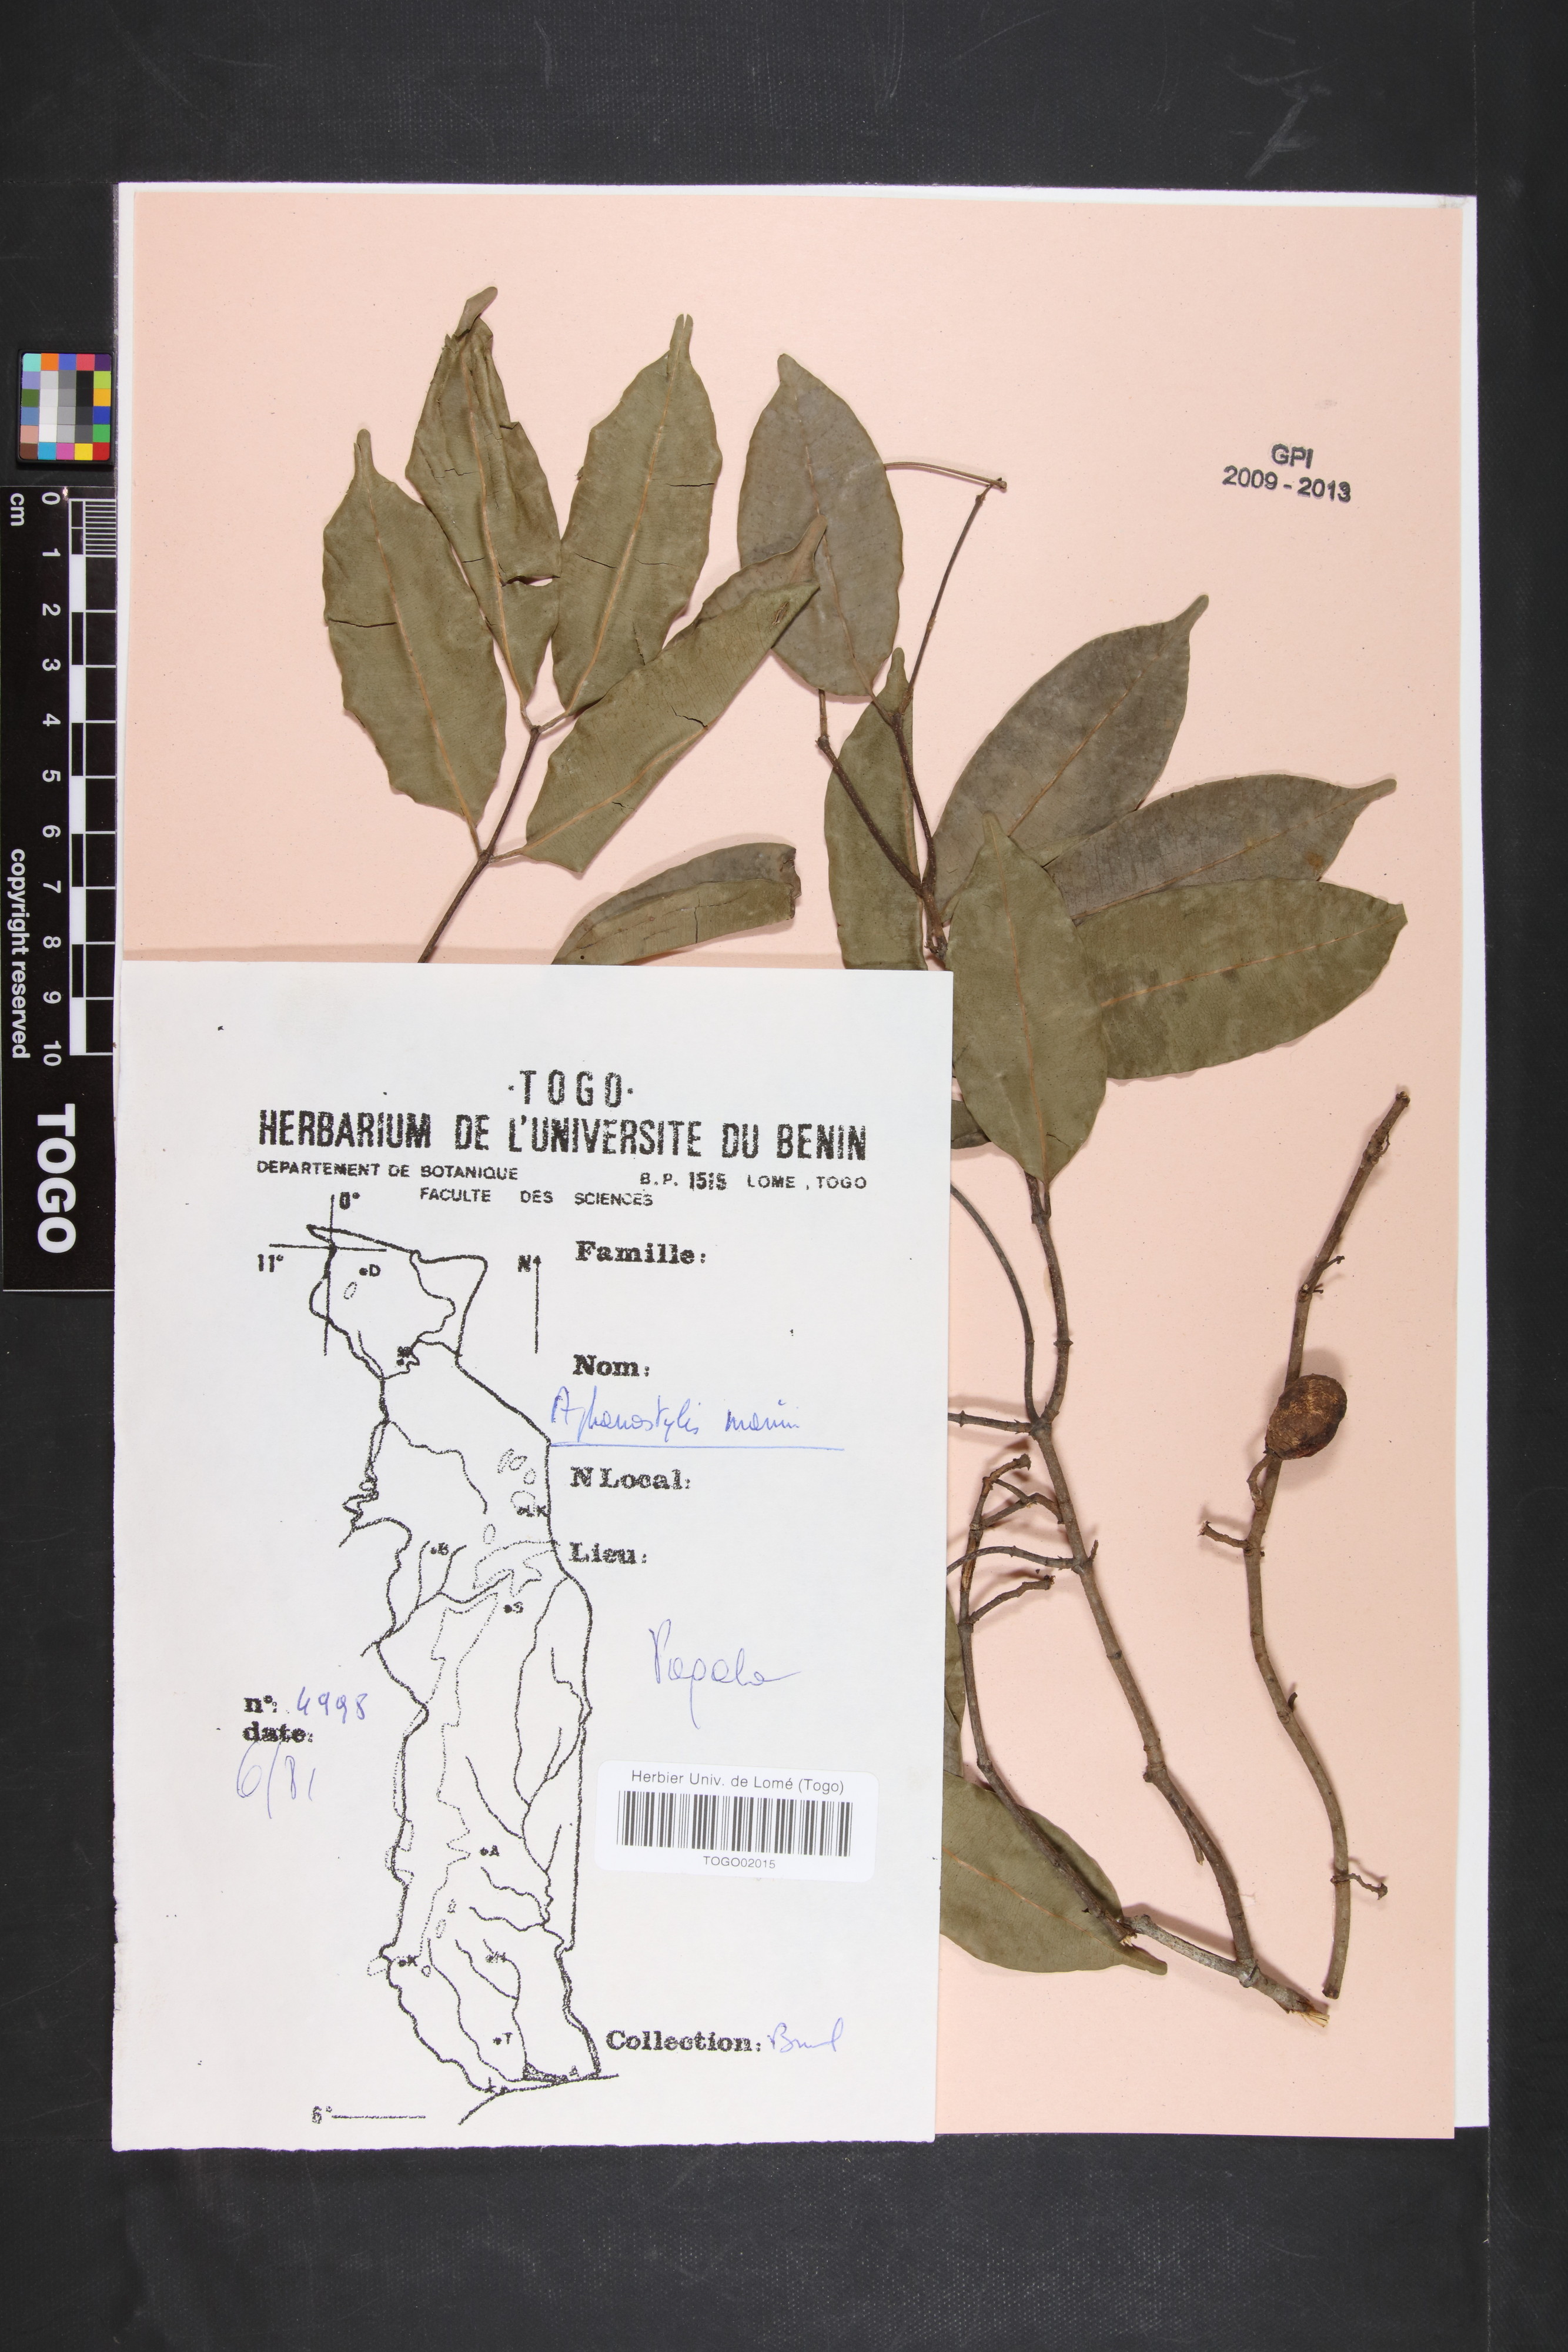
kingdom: Plantae
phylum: Tracheophyta
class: Magnoliopsida
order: Gentianales
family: Apocynaceae
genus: Landolphia
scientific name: Landolphia incerta
